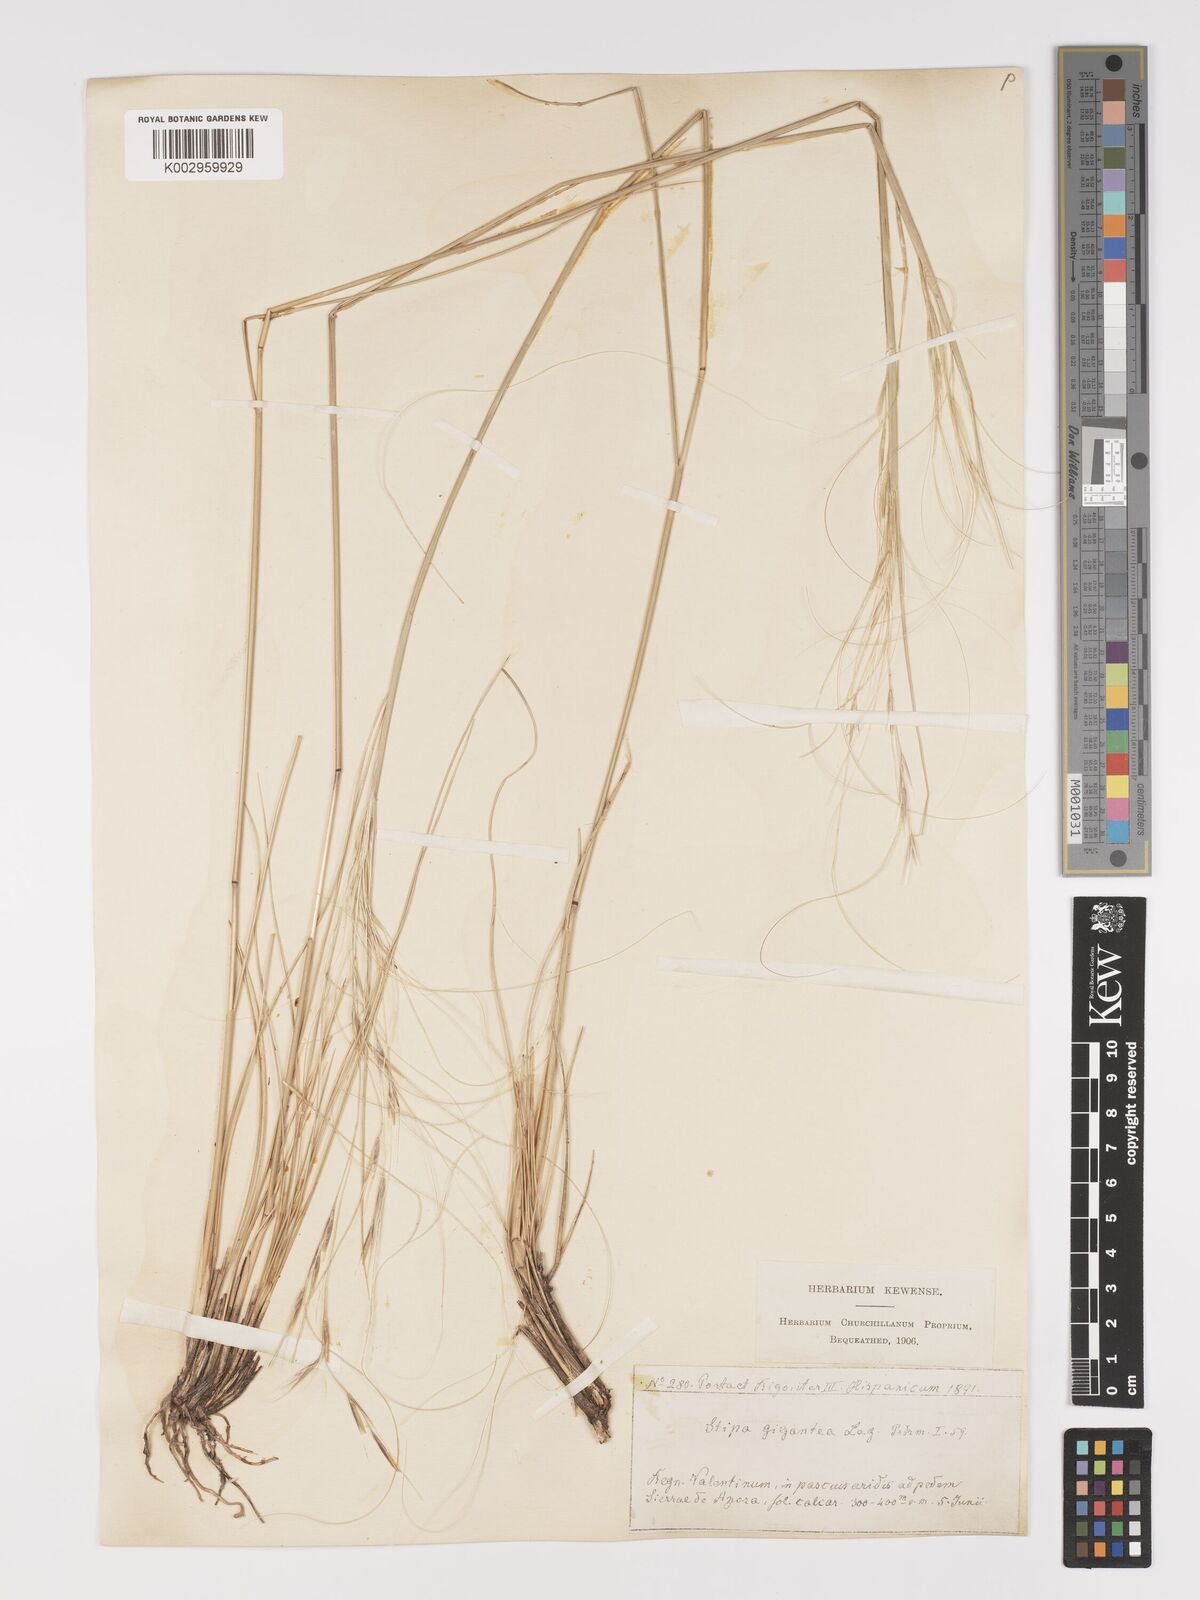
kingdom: Plantae
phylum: Tracheophyta
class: Liliopsida
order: Poales
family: Poaceae
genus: Stipa
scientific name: Stipa
